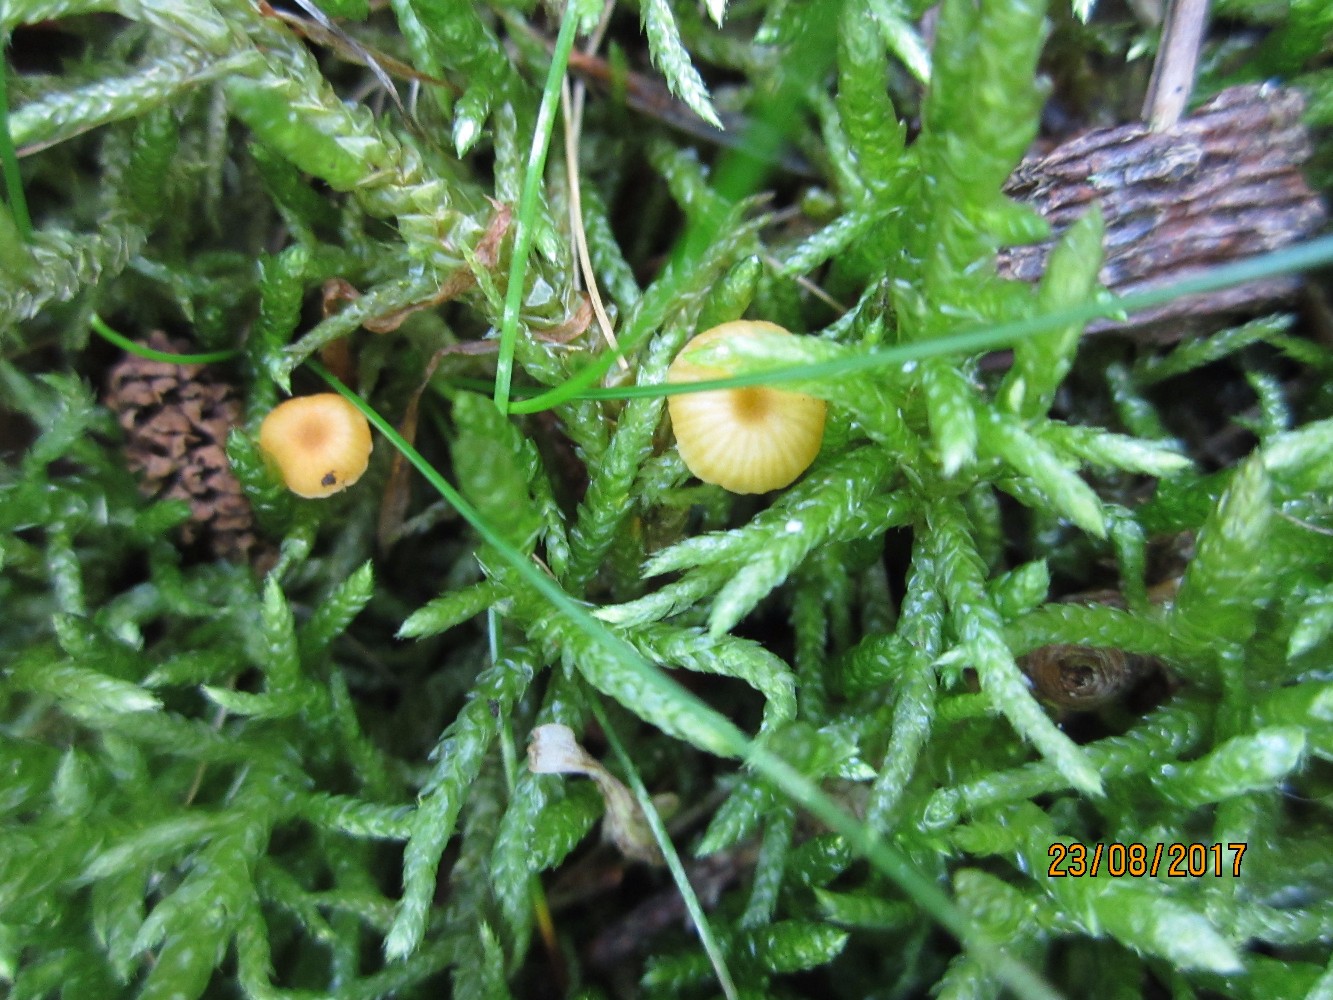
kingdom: Fungi
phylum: Basidiomycota
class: Agaricomycetes
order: Hymenochaetales
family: Rickenellaceae
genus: Rickenella
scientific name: Rickenella fibula
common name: orange mosnavlehat
